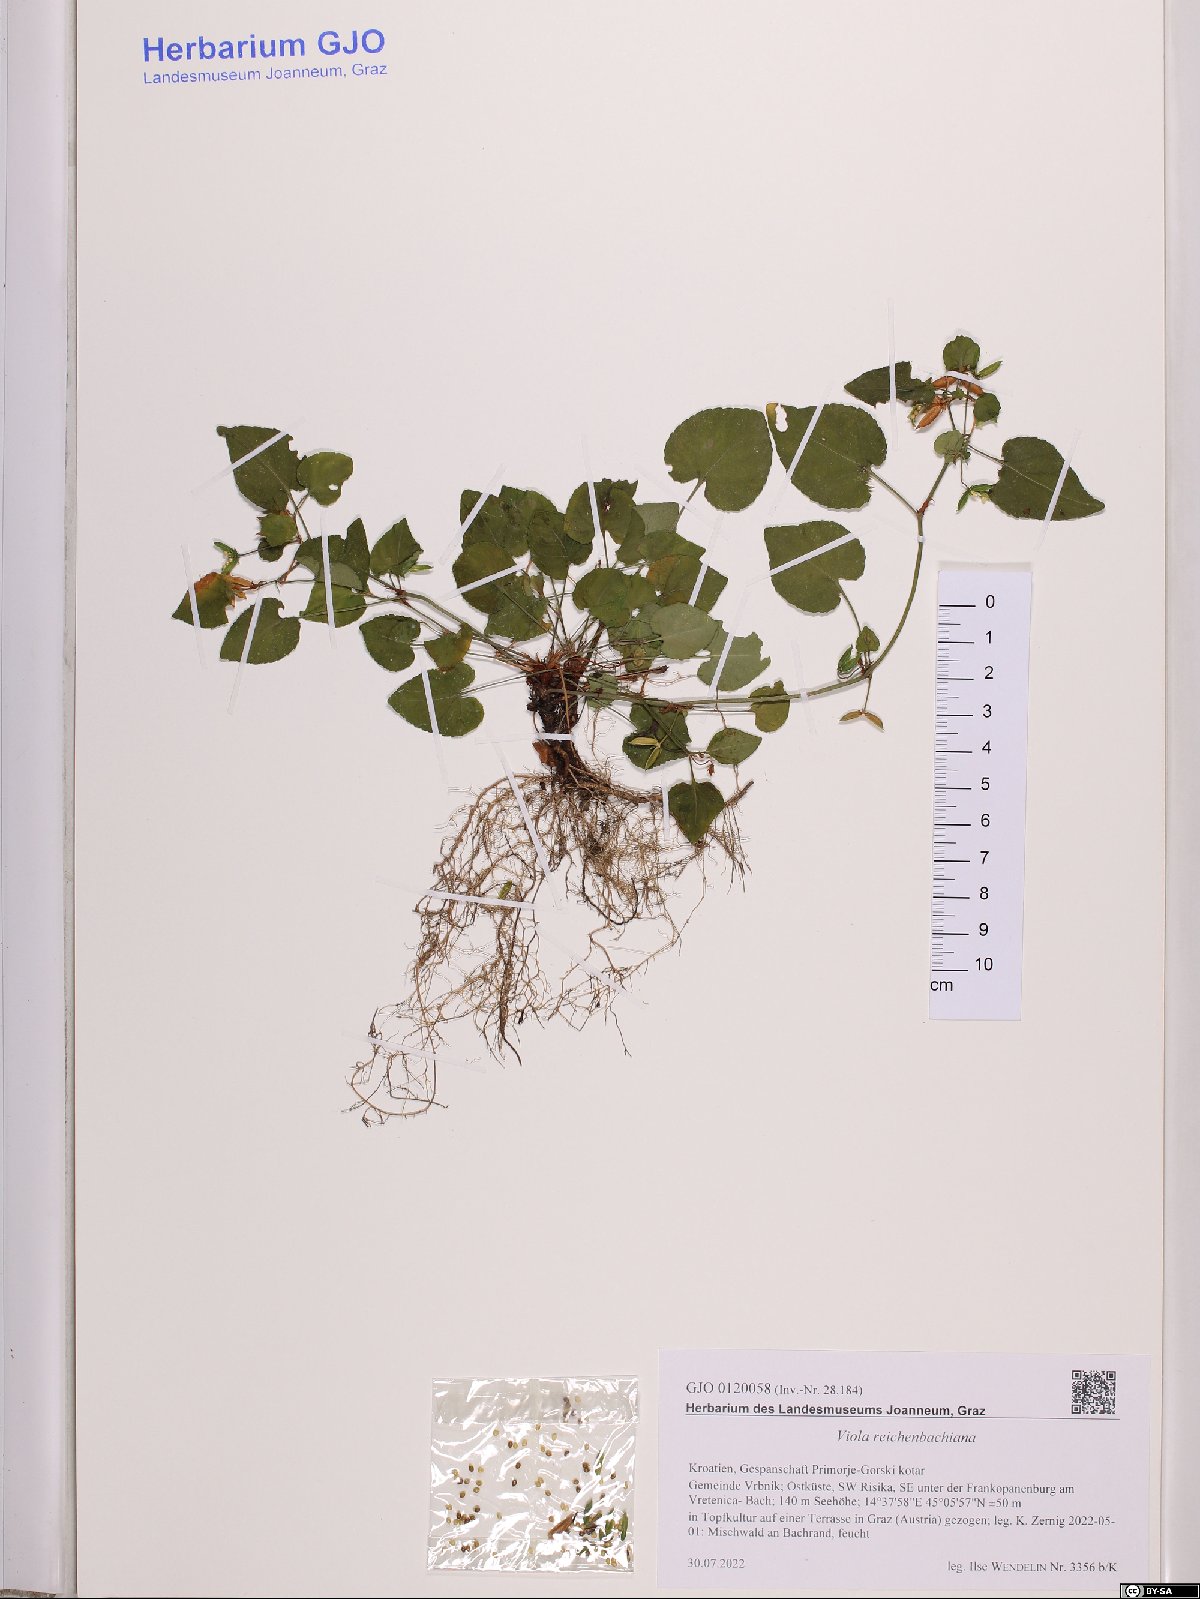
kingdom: Plantae
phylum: Tracheophyta
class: Magnoliopsida
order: Malpighiales
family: Violaceae
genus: Viola
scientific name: Viola reichenbachiana
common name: Early dog-violet
